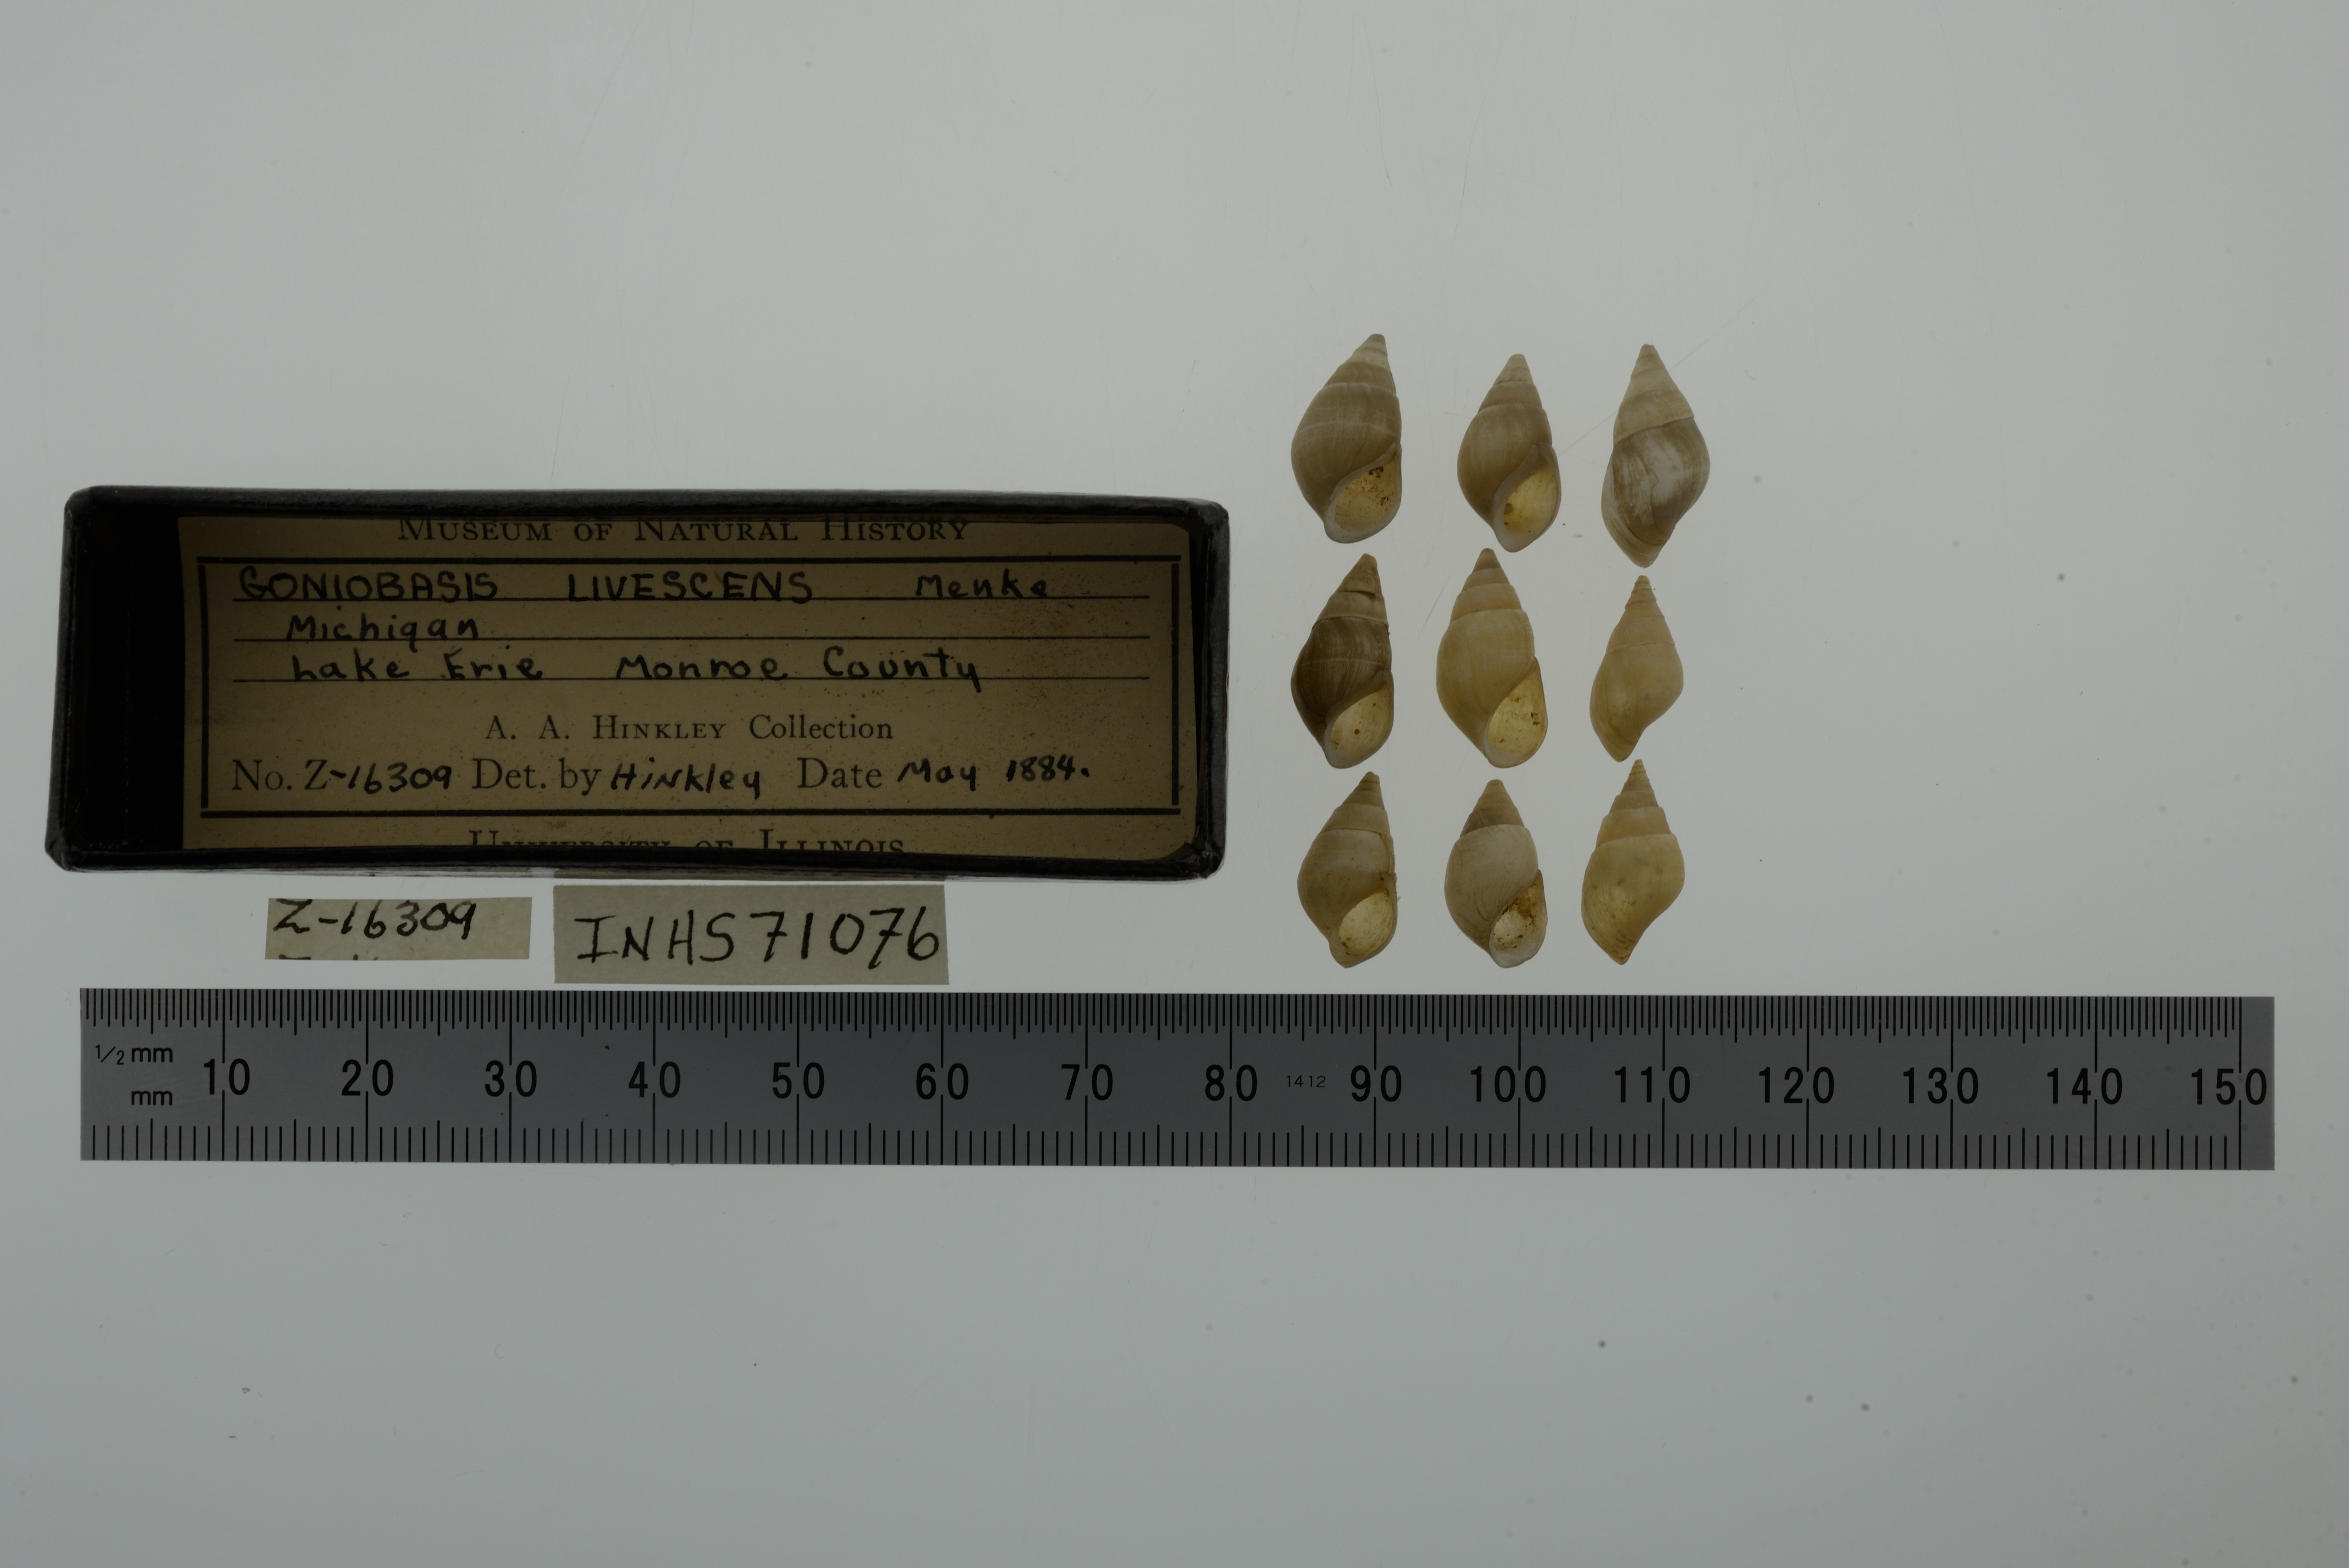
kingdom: Animalia
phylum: Mollusca
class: Gastropoda
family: Pleuroceridae
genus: Elimia
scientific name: Elimia livescens
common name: Liver elimia
